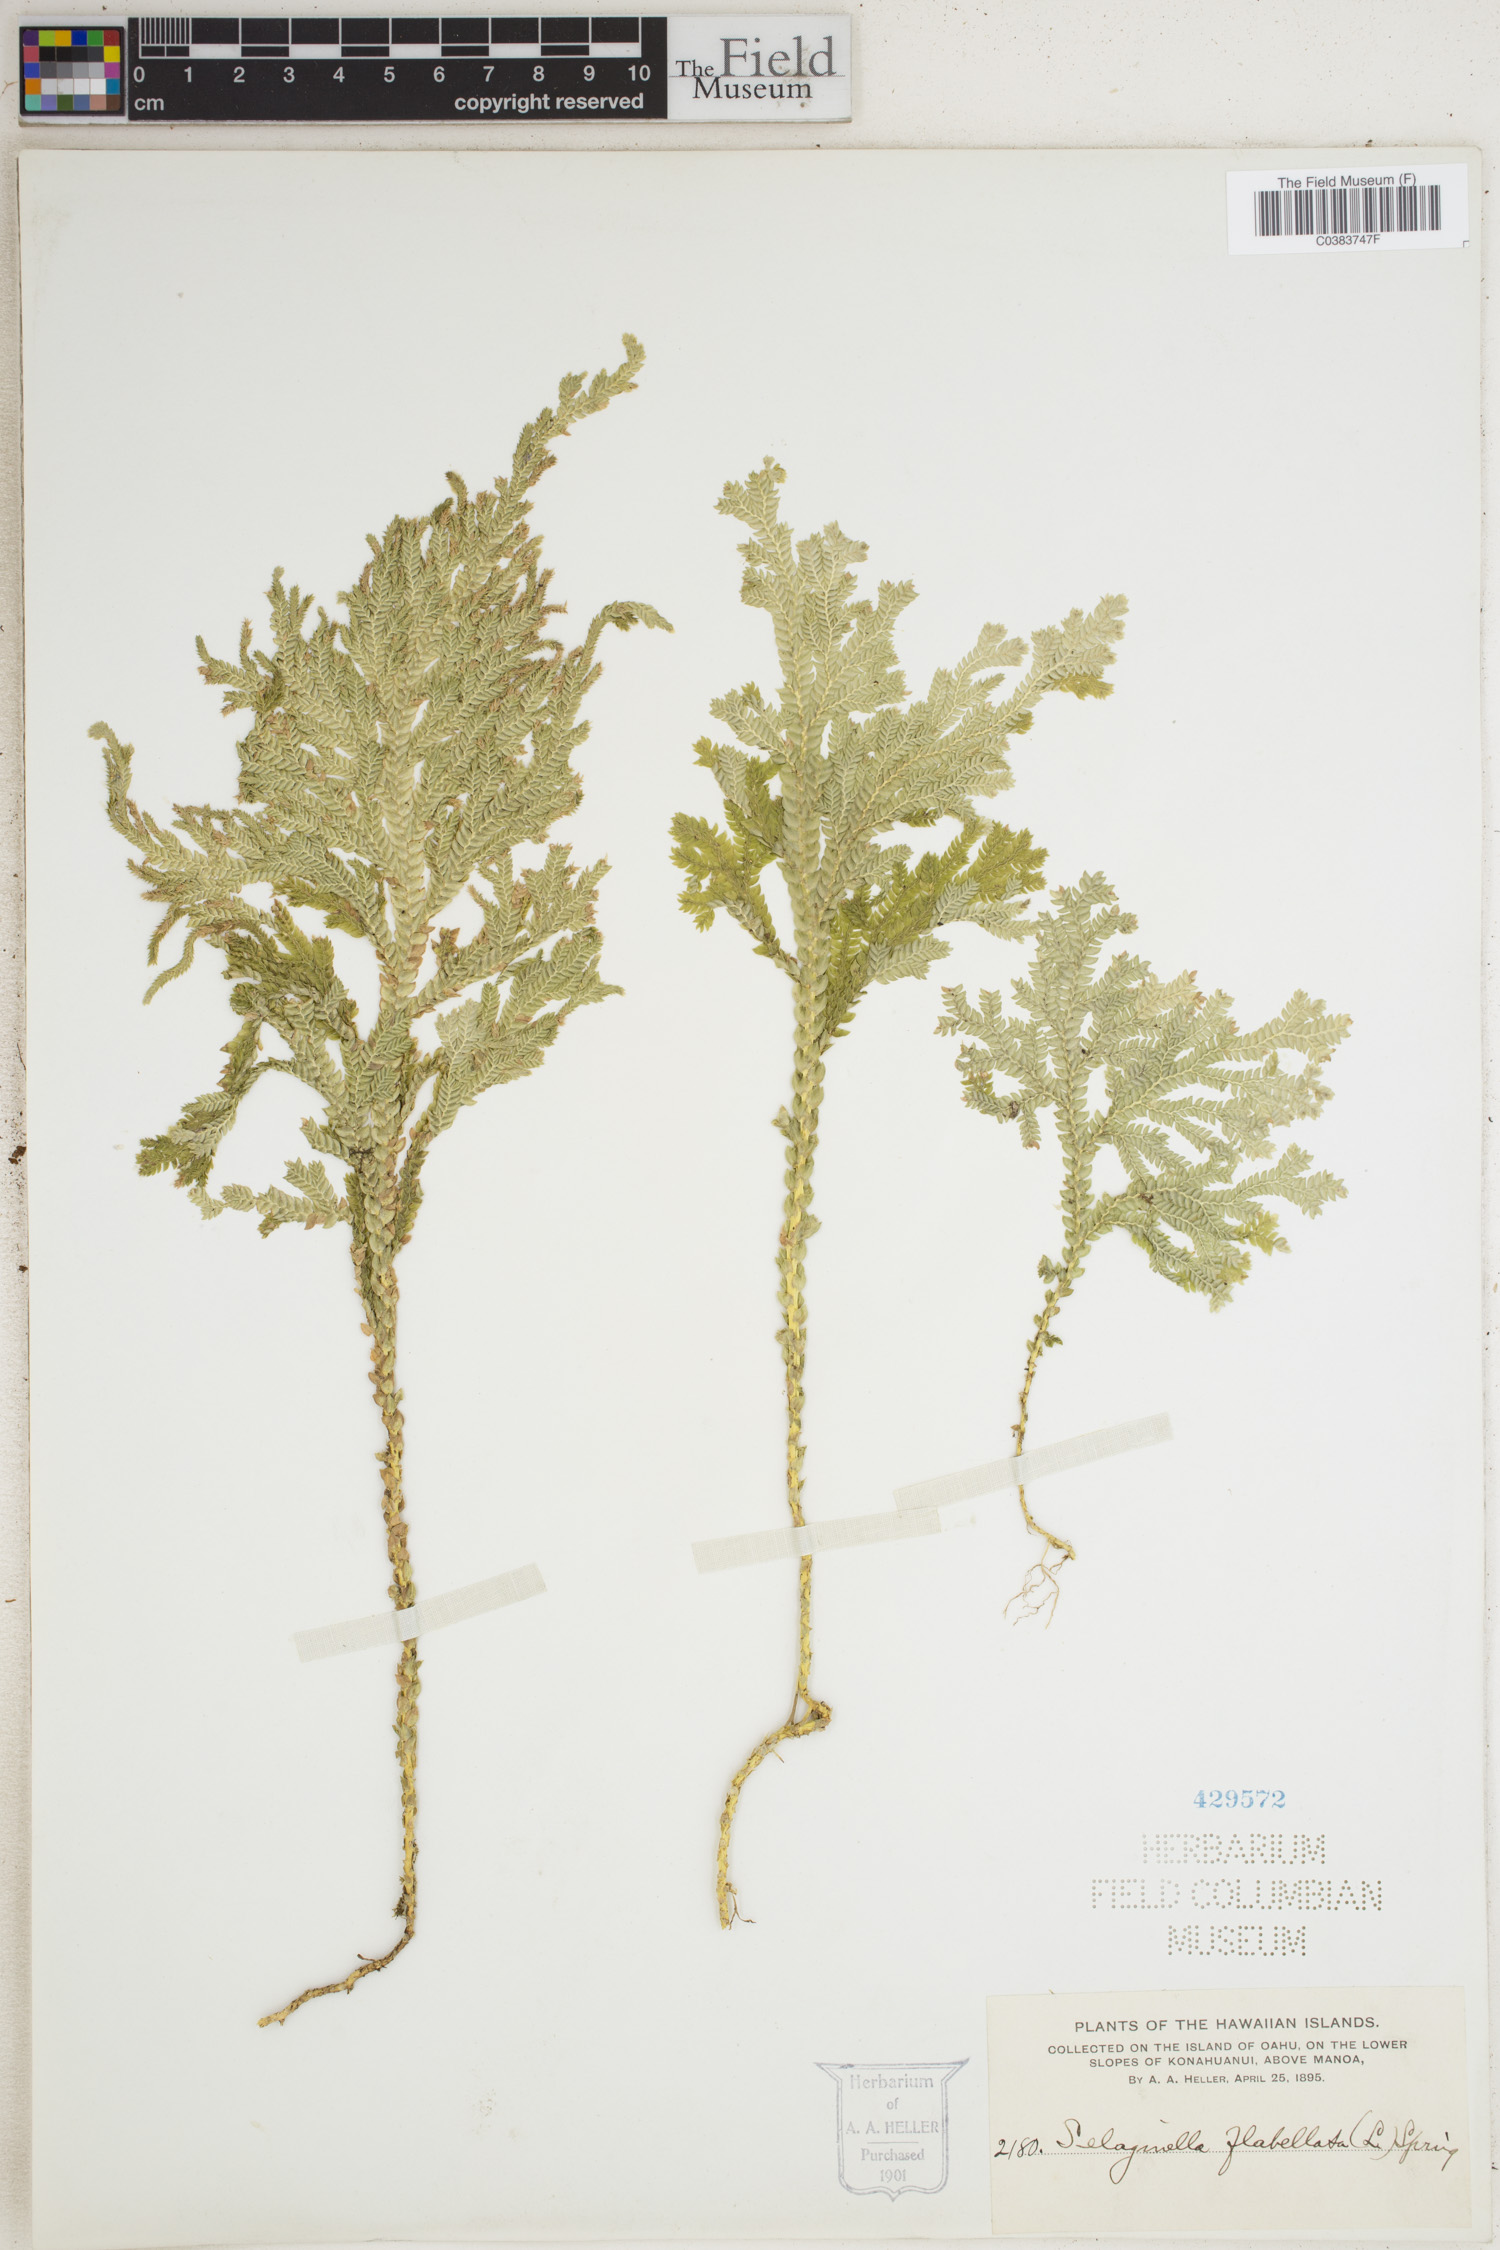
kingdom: Plantae
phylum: Tracheophyta
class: Lycopodiopsida
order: Selaginellales
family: Selaginellaceae
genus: Selaginella
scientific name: Selaginella flabellata
